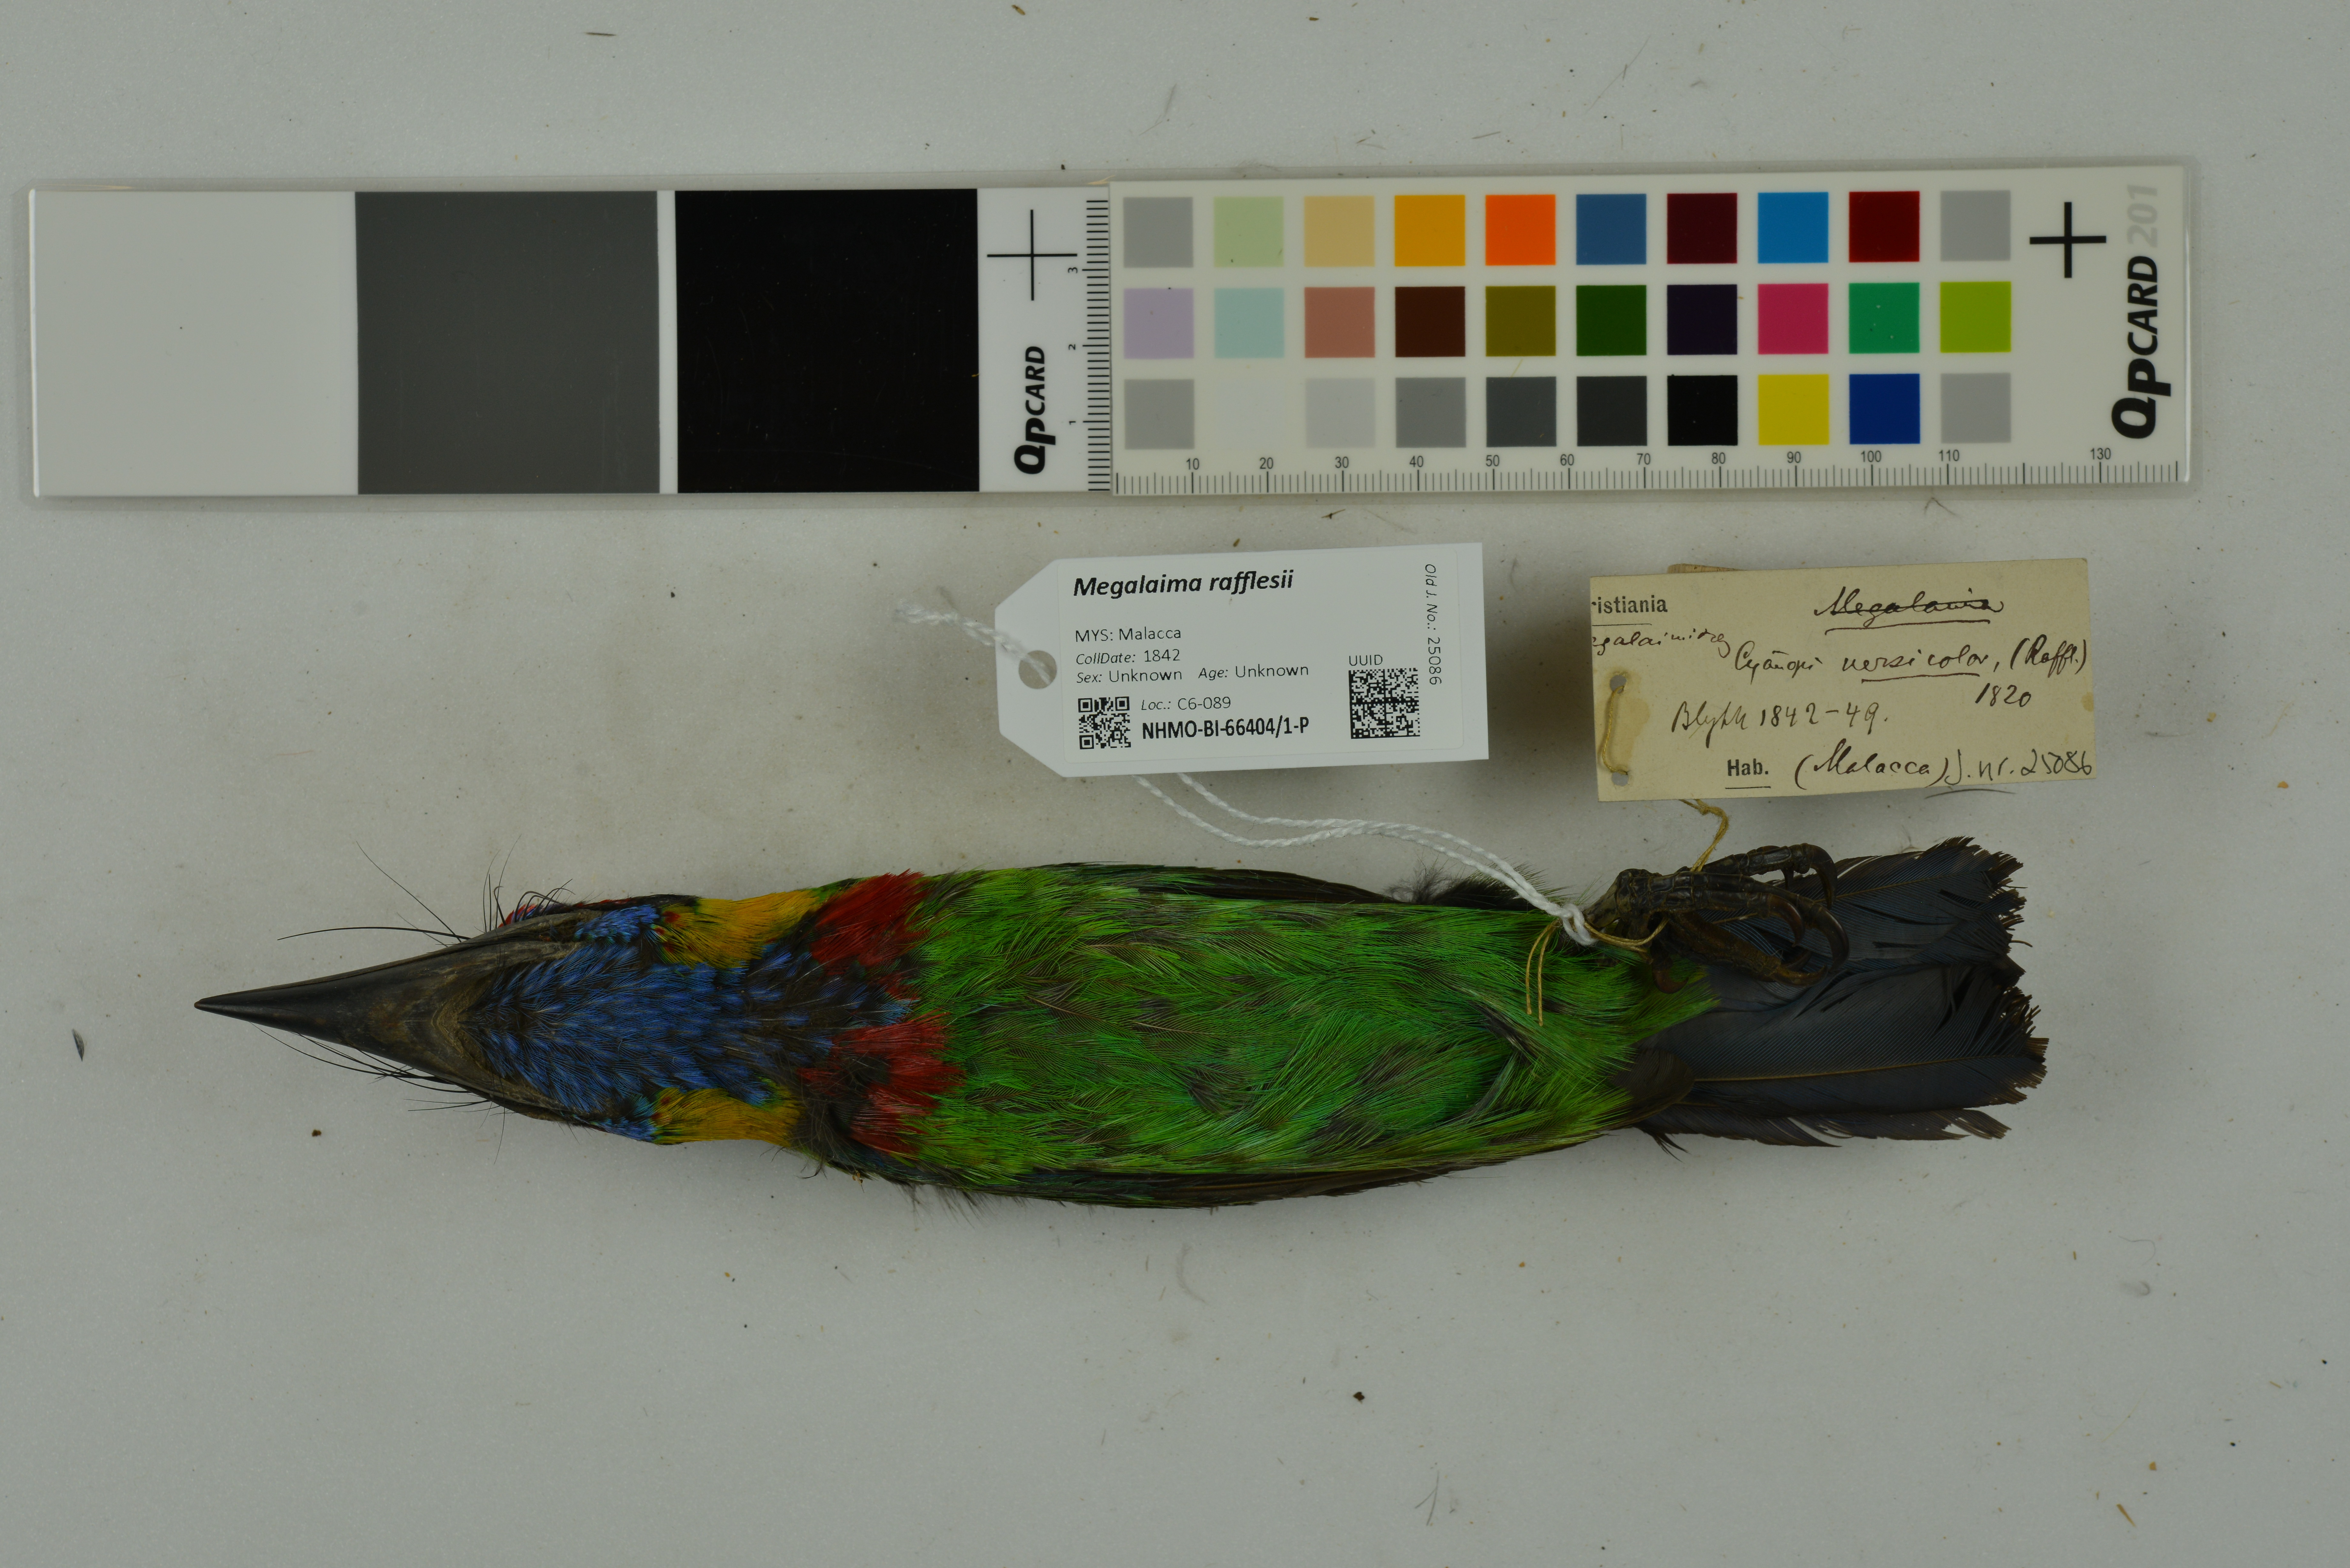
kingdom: Animalia
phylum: Chordata
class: Aves
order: Piciformes
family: Megalaimidae
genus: Psilopogon
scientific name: Psilopogon rafflesii
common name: Red-crowned barbet
